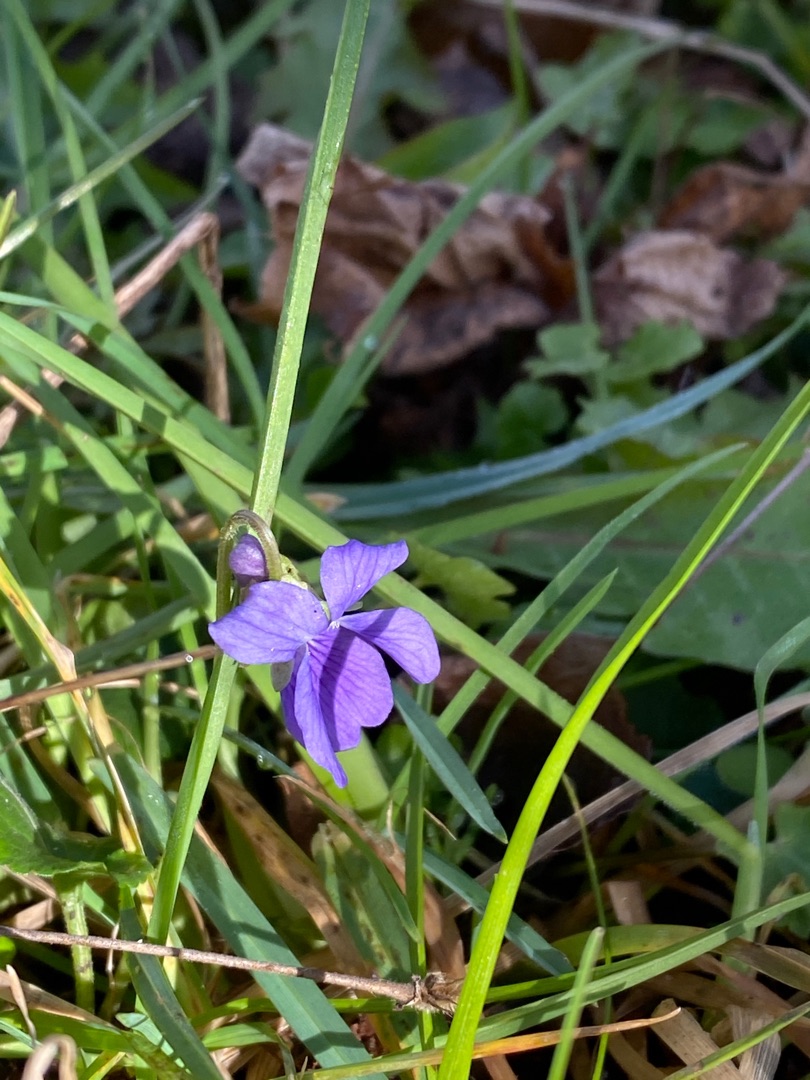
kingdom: Plantae
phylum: Tracheophyta
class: Magnoliopsida
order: Malpighiales
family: Violaceae
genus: Viola
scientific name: Viola odorata
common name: Marts-viol
